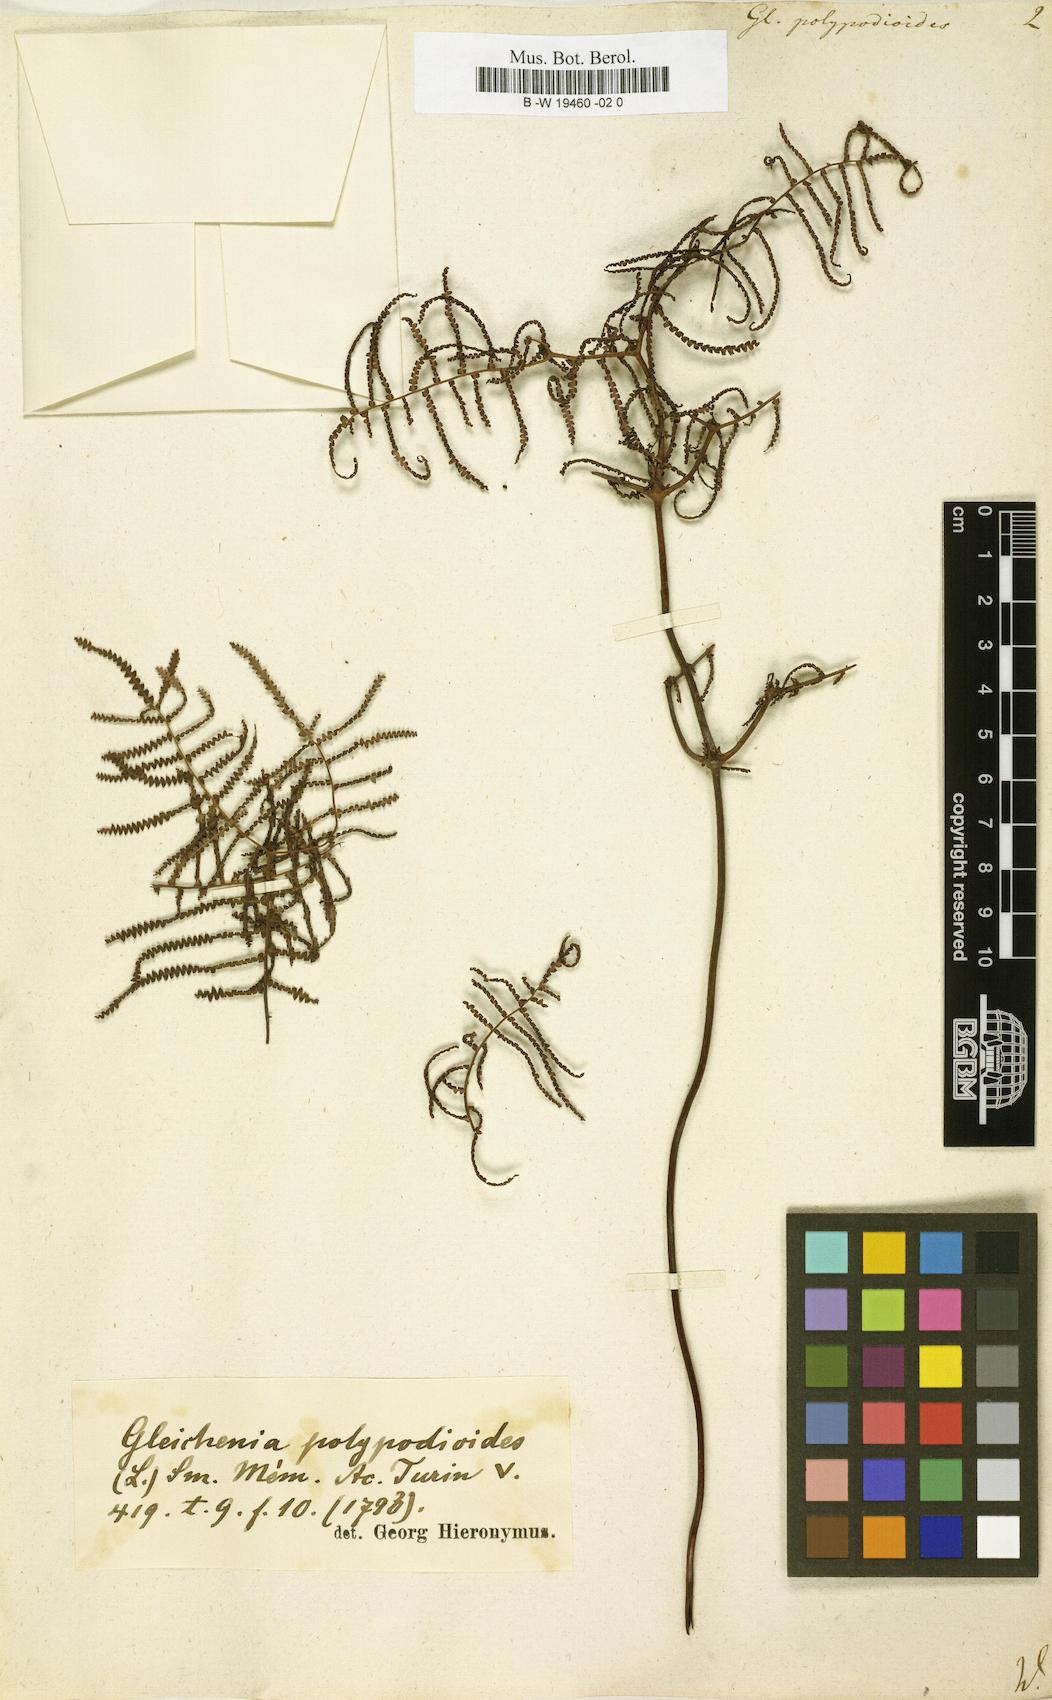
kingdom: Plantae
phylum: Tracheophyta
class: Polypodiopsida
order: Gleicheniales
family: Gleicheniaceae
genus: Gleichenia
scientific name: Gleichenia polypodioides
